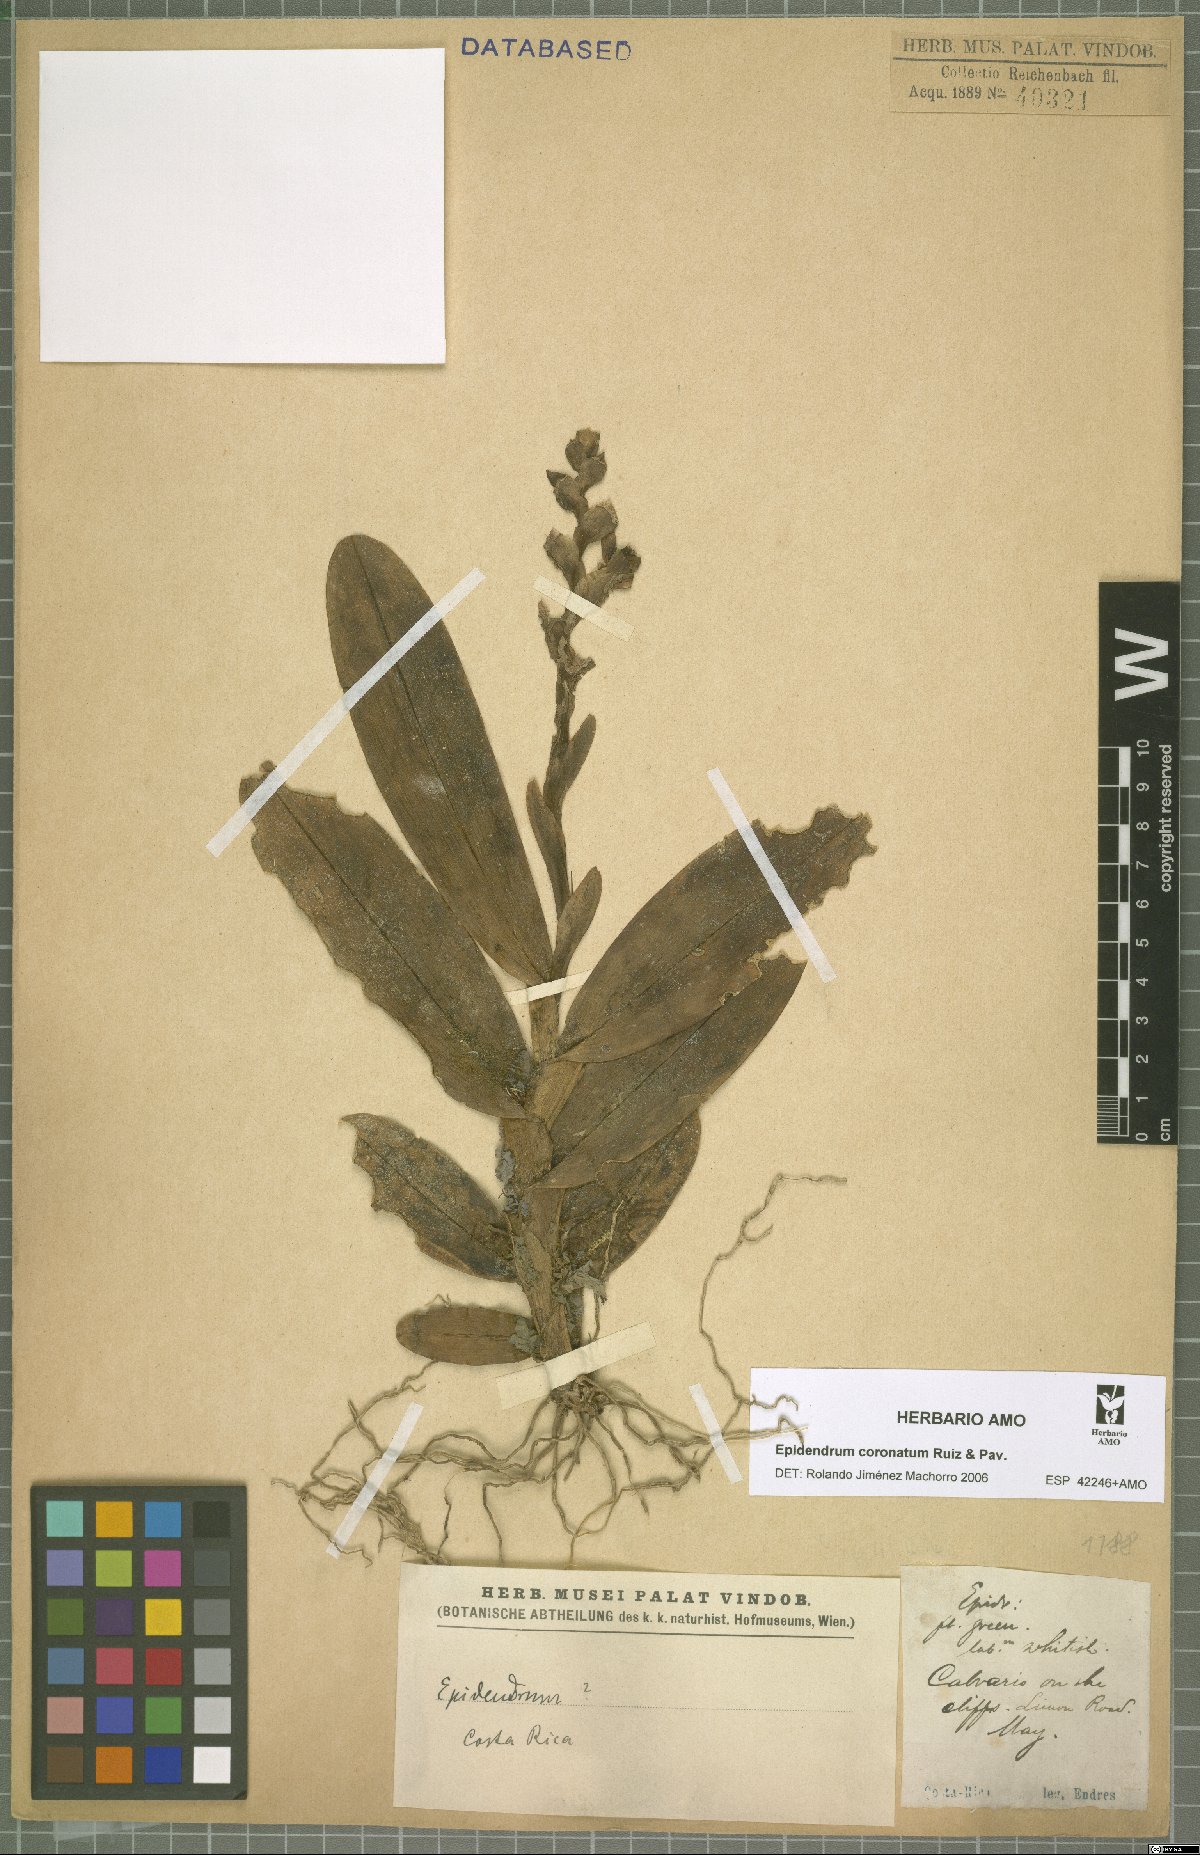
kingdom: Plantae
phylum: Tracheophyta
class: Liliopsida
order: Asparagales
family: Orchidaceae
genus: Epidendrum
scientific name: Epidendrum coronatum
